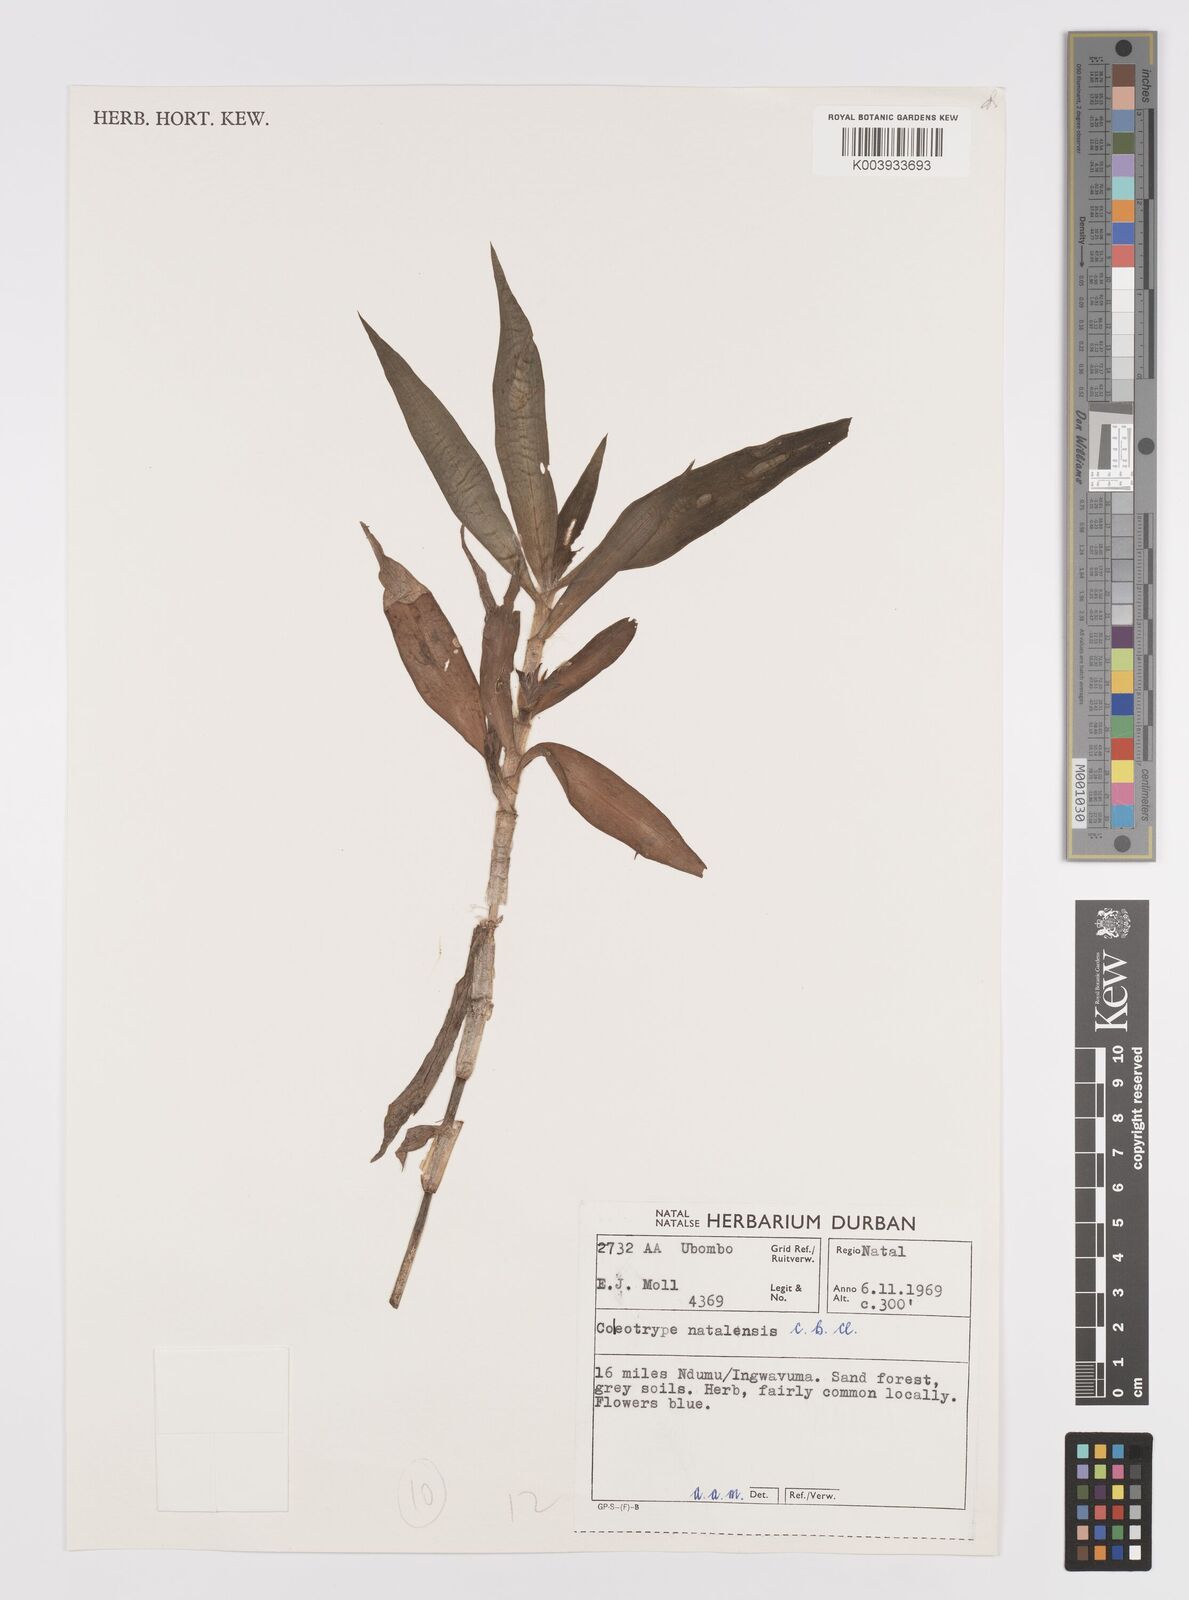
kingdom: Plantae
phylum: Tracheophyta
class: Liliopsida
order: Commelinales
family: Commelinaceae
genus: Coleotrype
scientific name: Coleotrype natalensis
